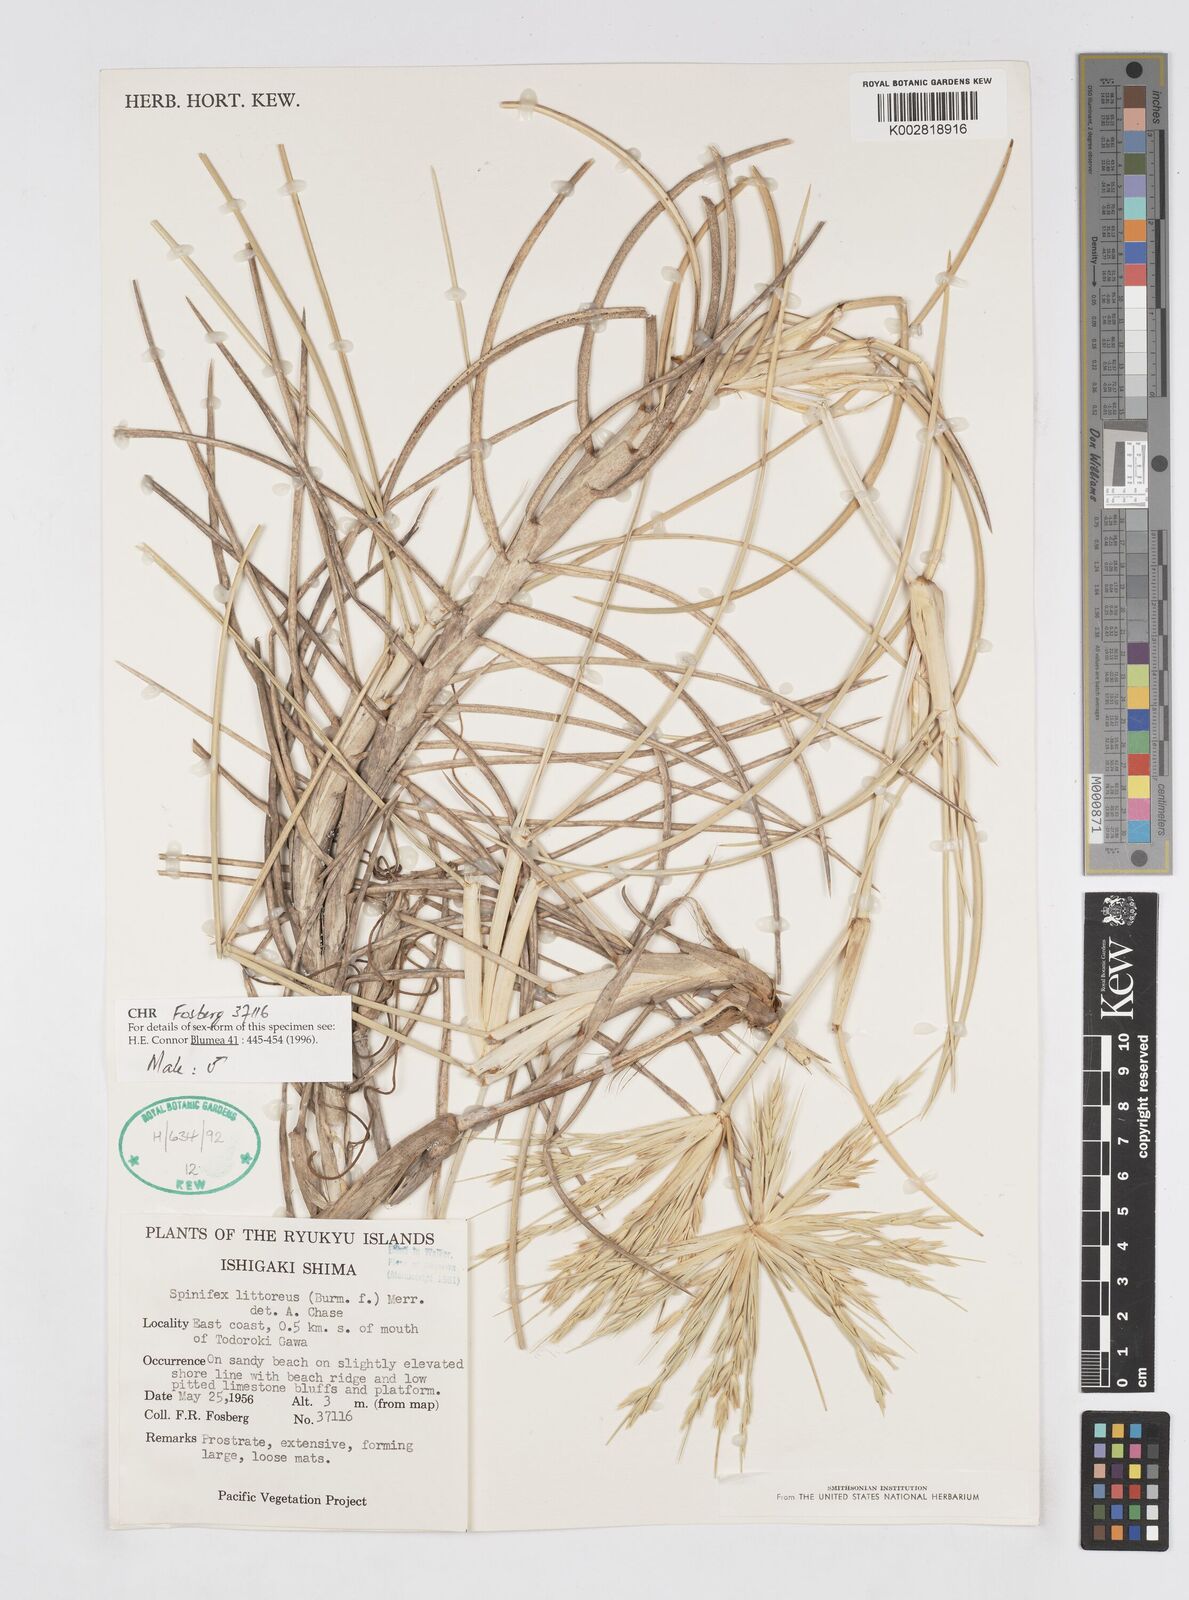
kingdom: Plantae
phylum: Tracheophyta
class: Liliopsida
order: Poales
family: Poaceae
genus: Spinifex
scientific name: Spinifex littoreus
